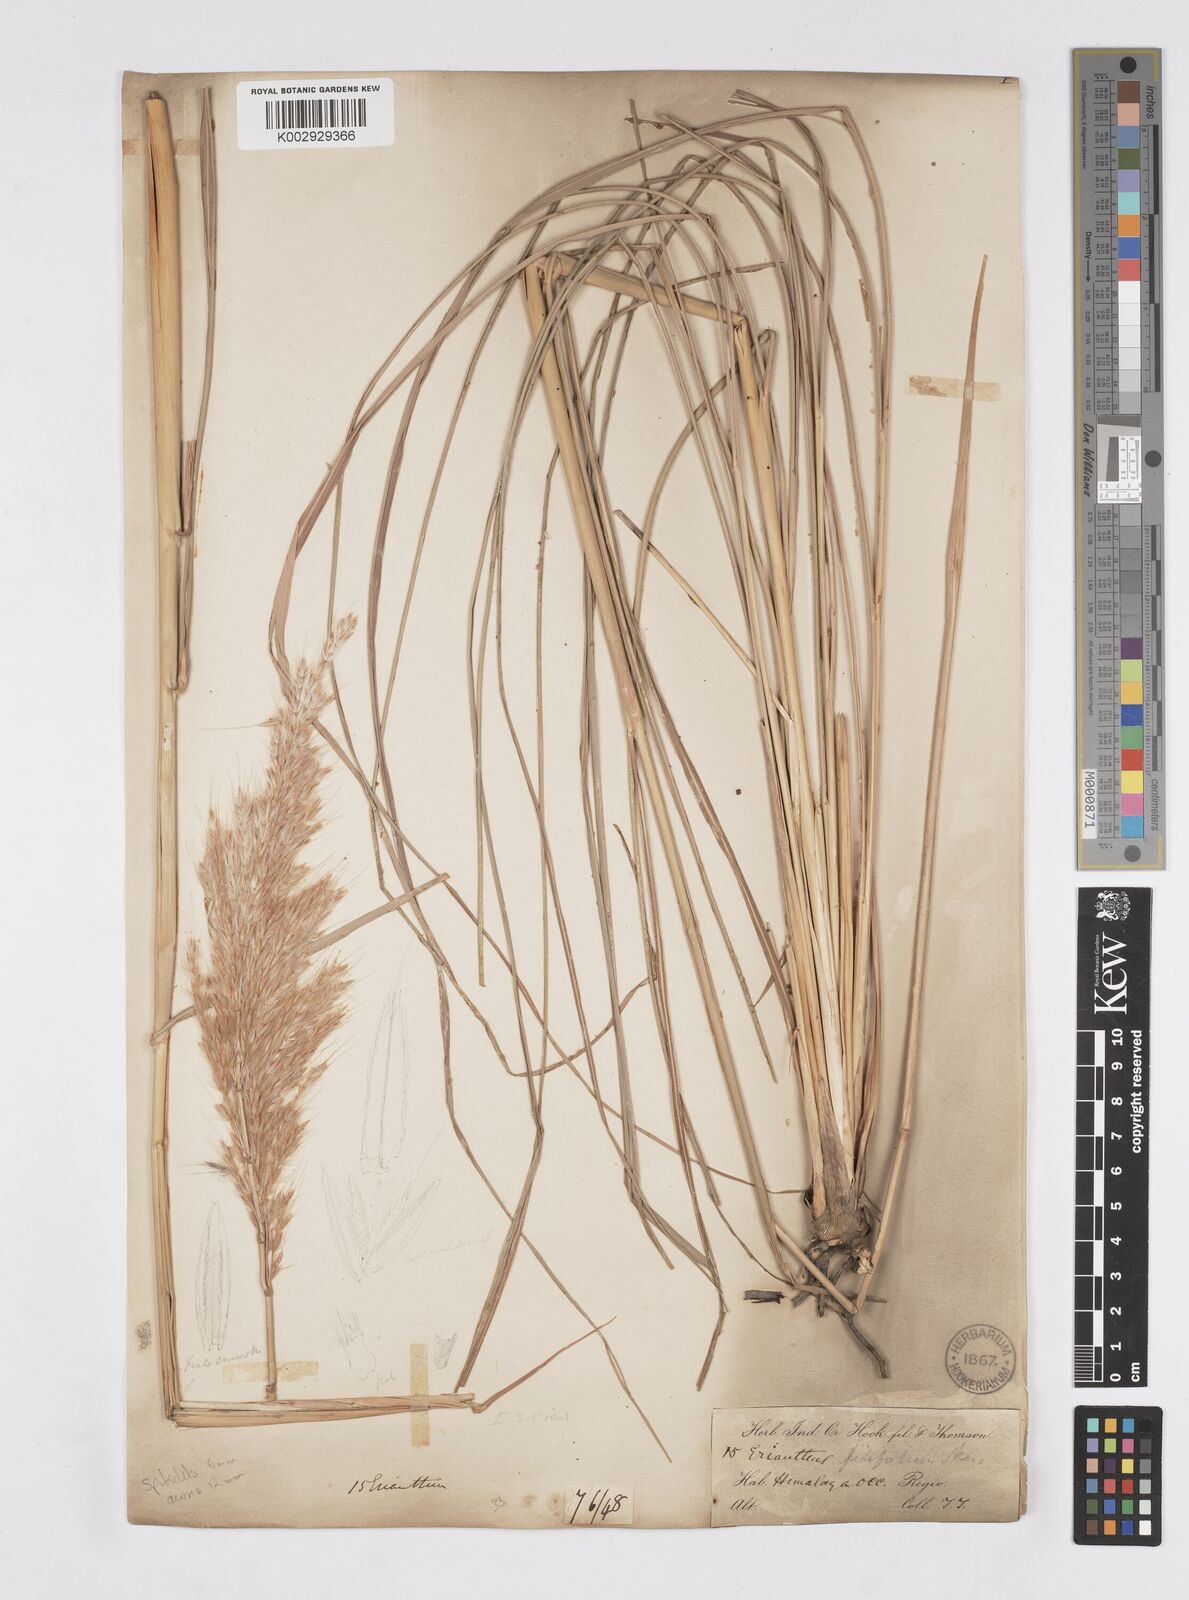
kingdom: Plantae
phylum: Tracheophyta
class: Liliopsida
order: Poales
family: Poaceae
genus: Saccharum
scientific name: Saccharum filifolium
